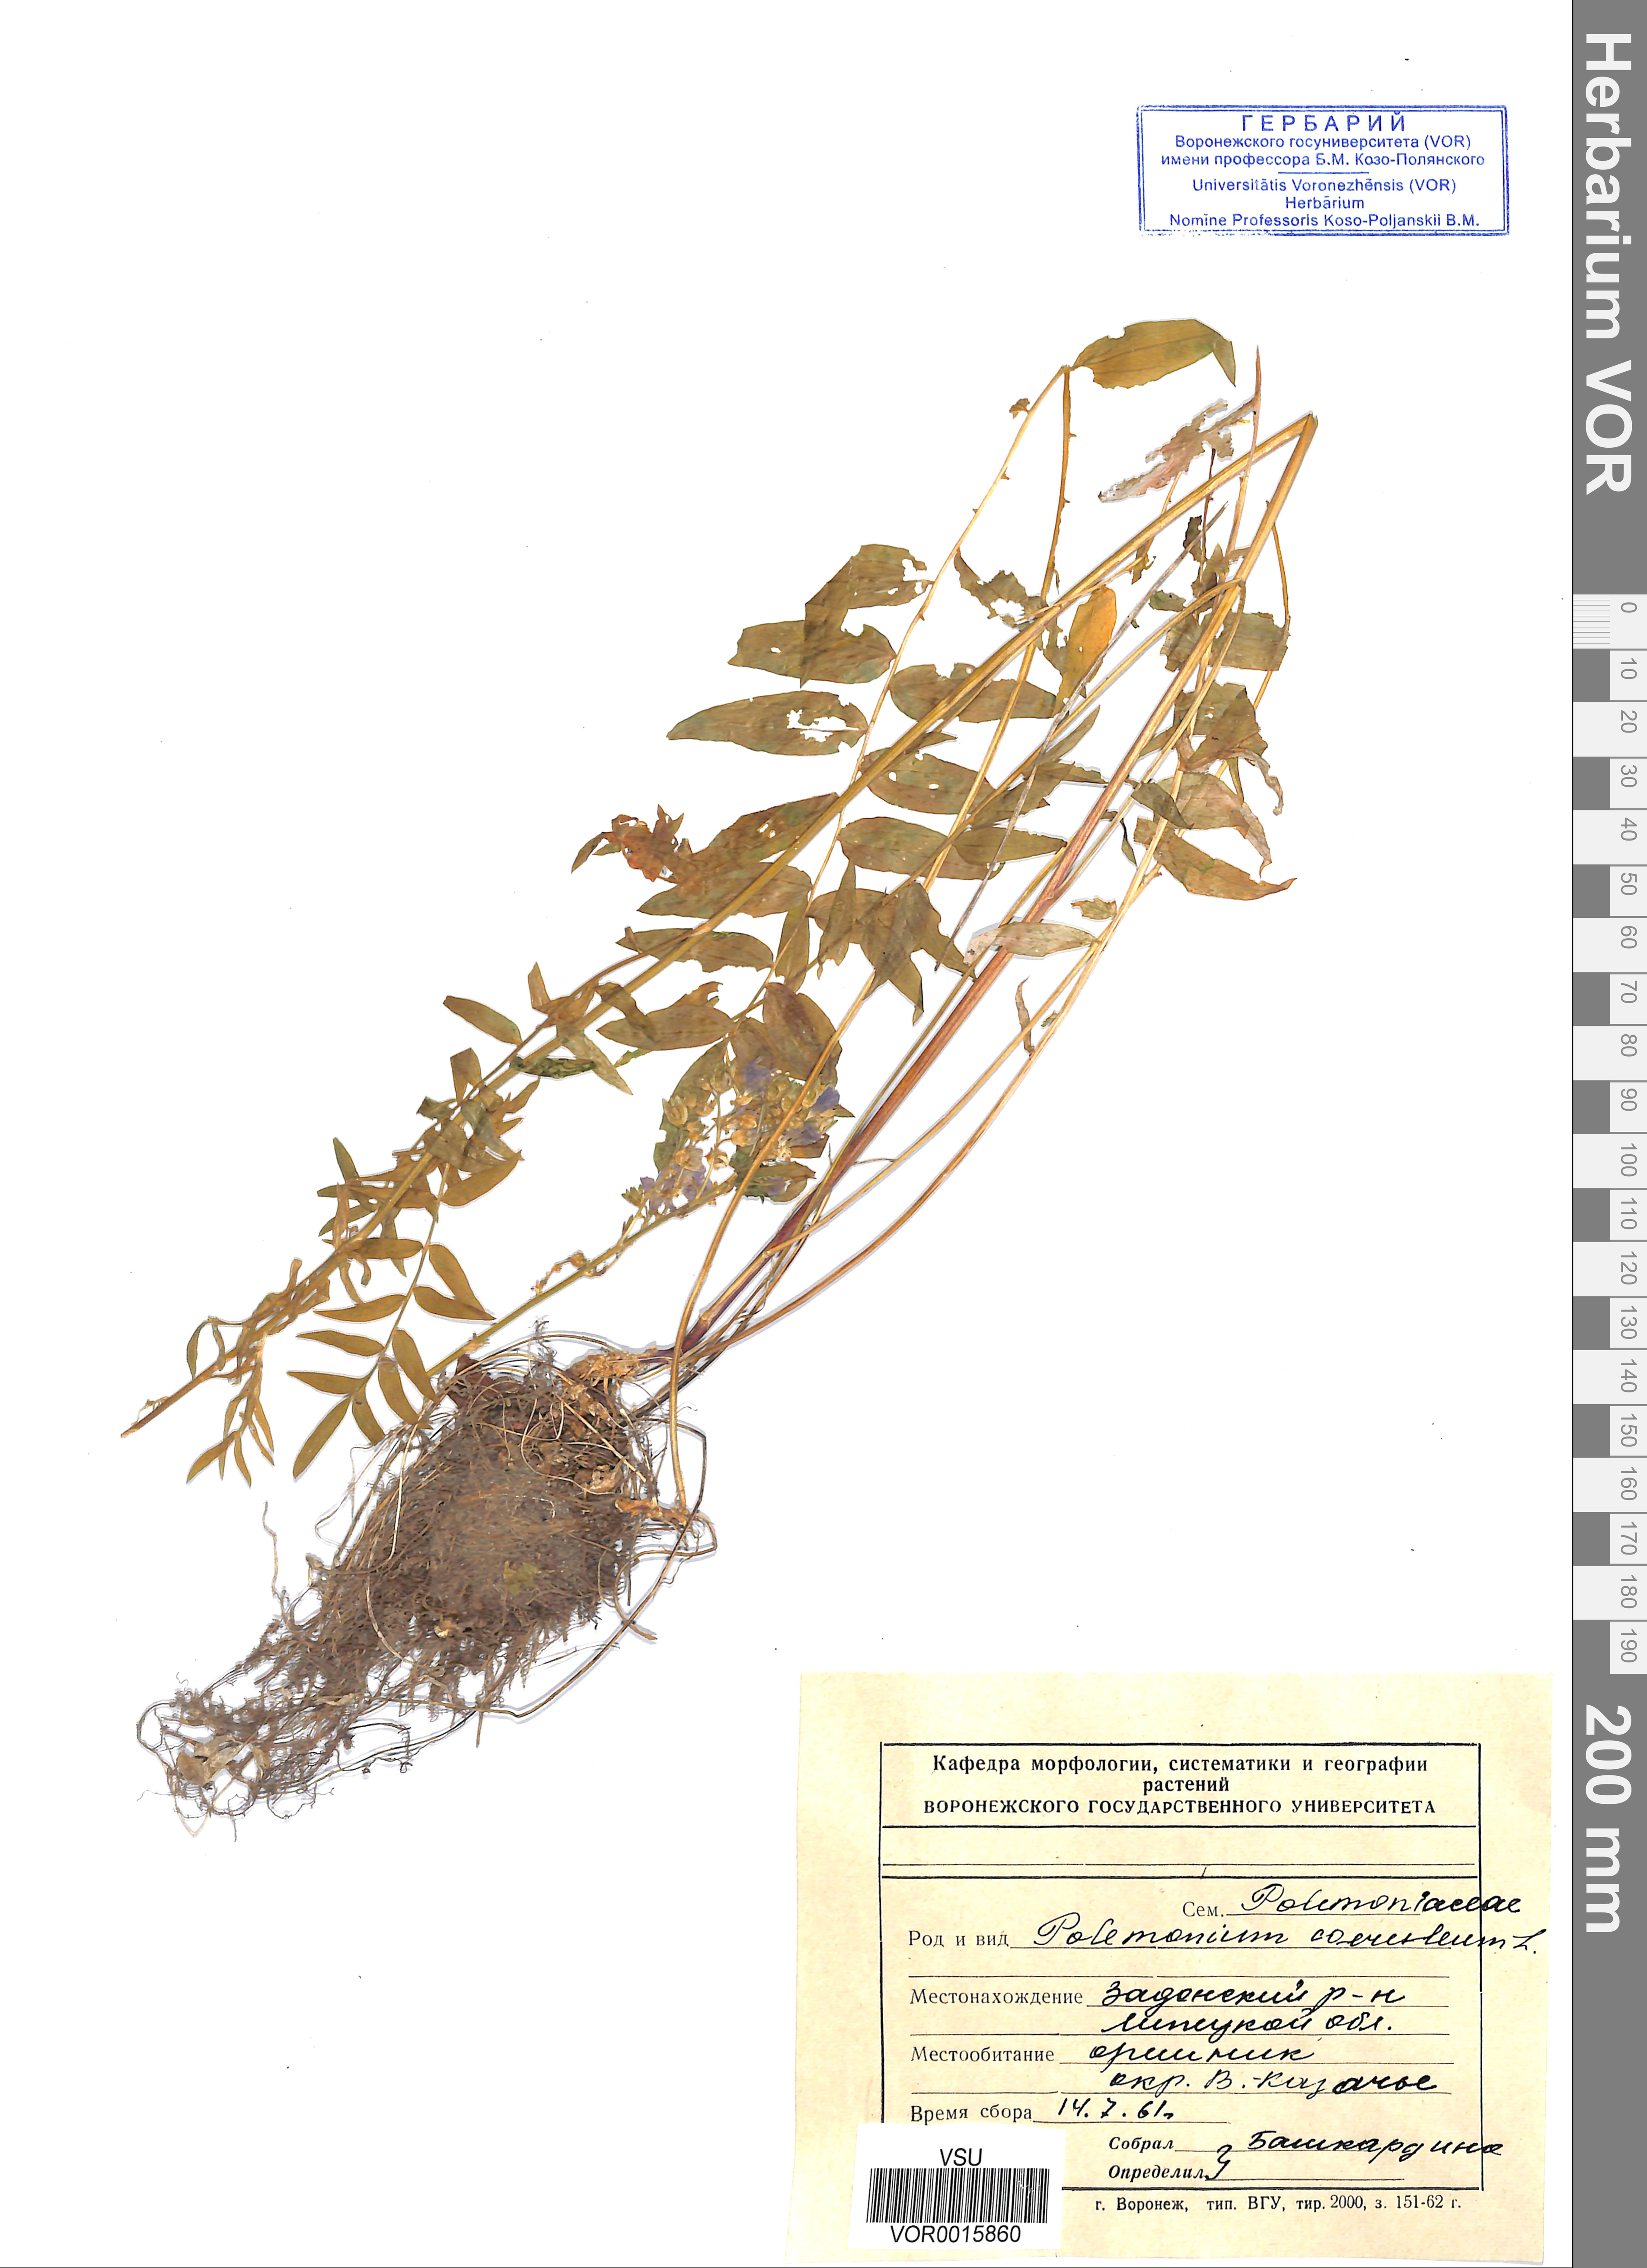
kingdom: Plantae
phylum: Tracheophyta
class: Magnoliopsida
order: Ericales
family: Polemoniaceae
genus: Polemonium
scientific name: Polemonium caeruleum
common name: Jacob's-ladder
